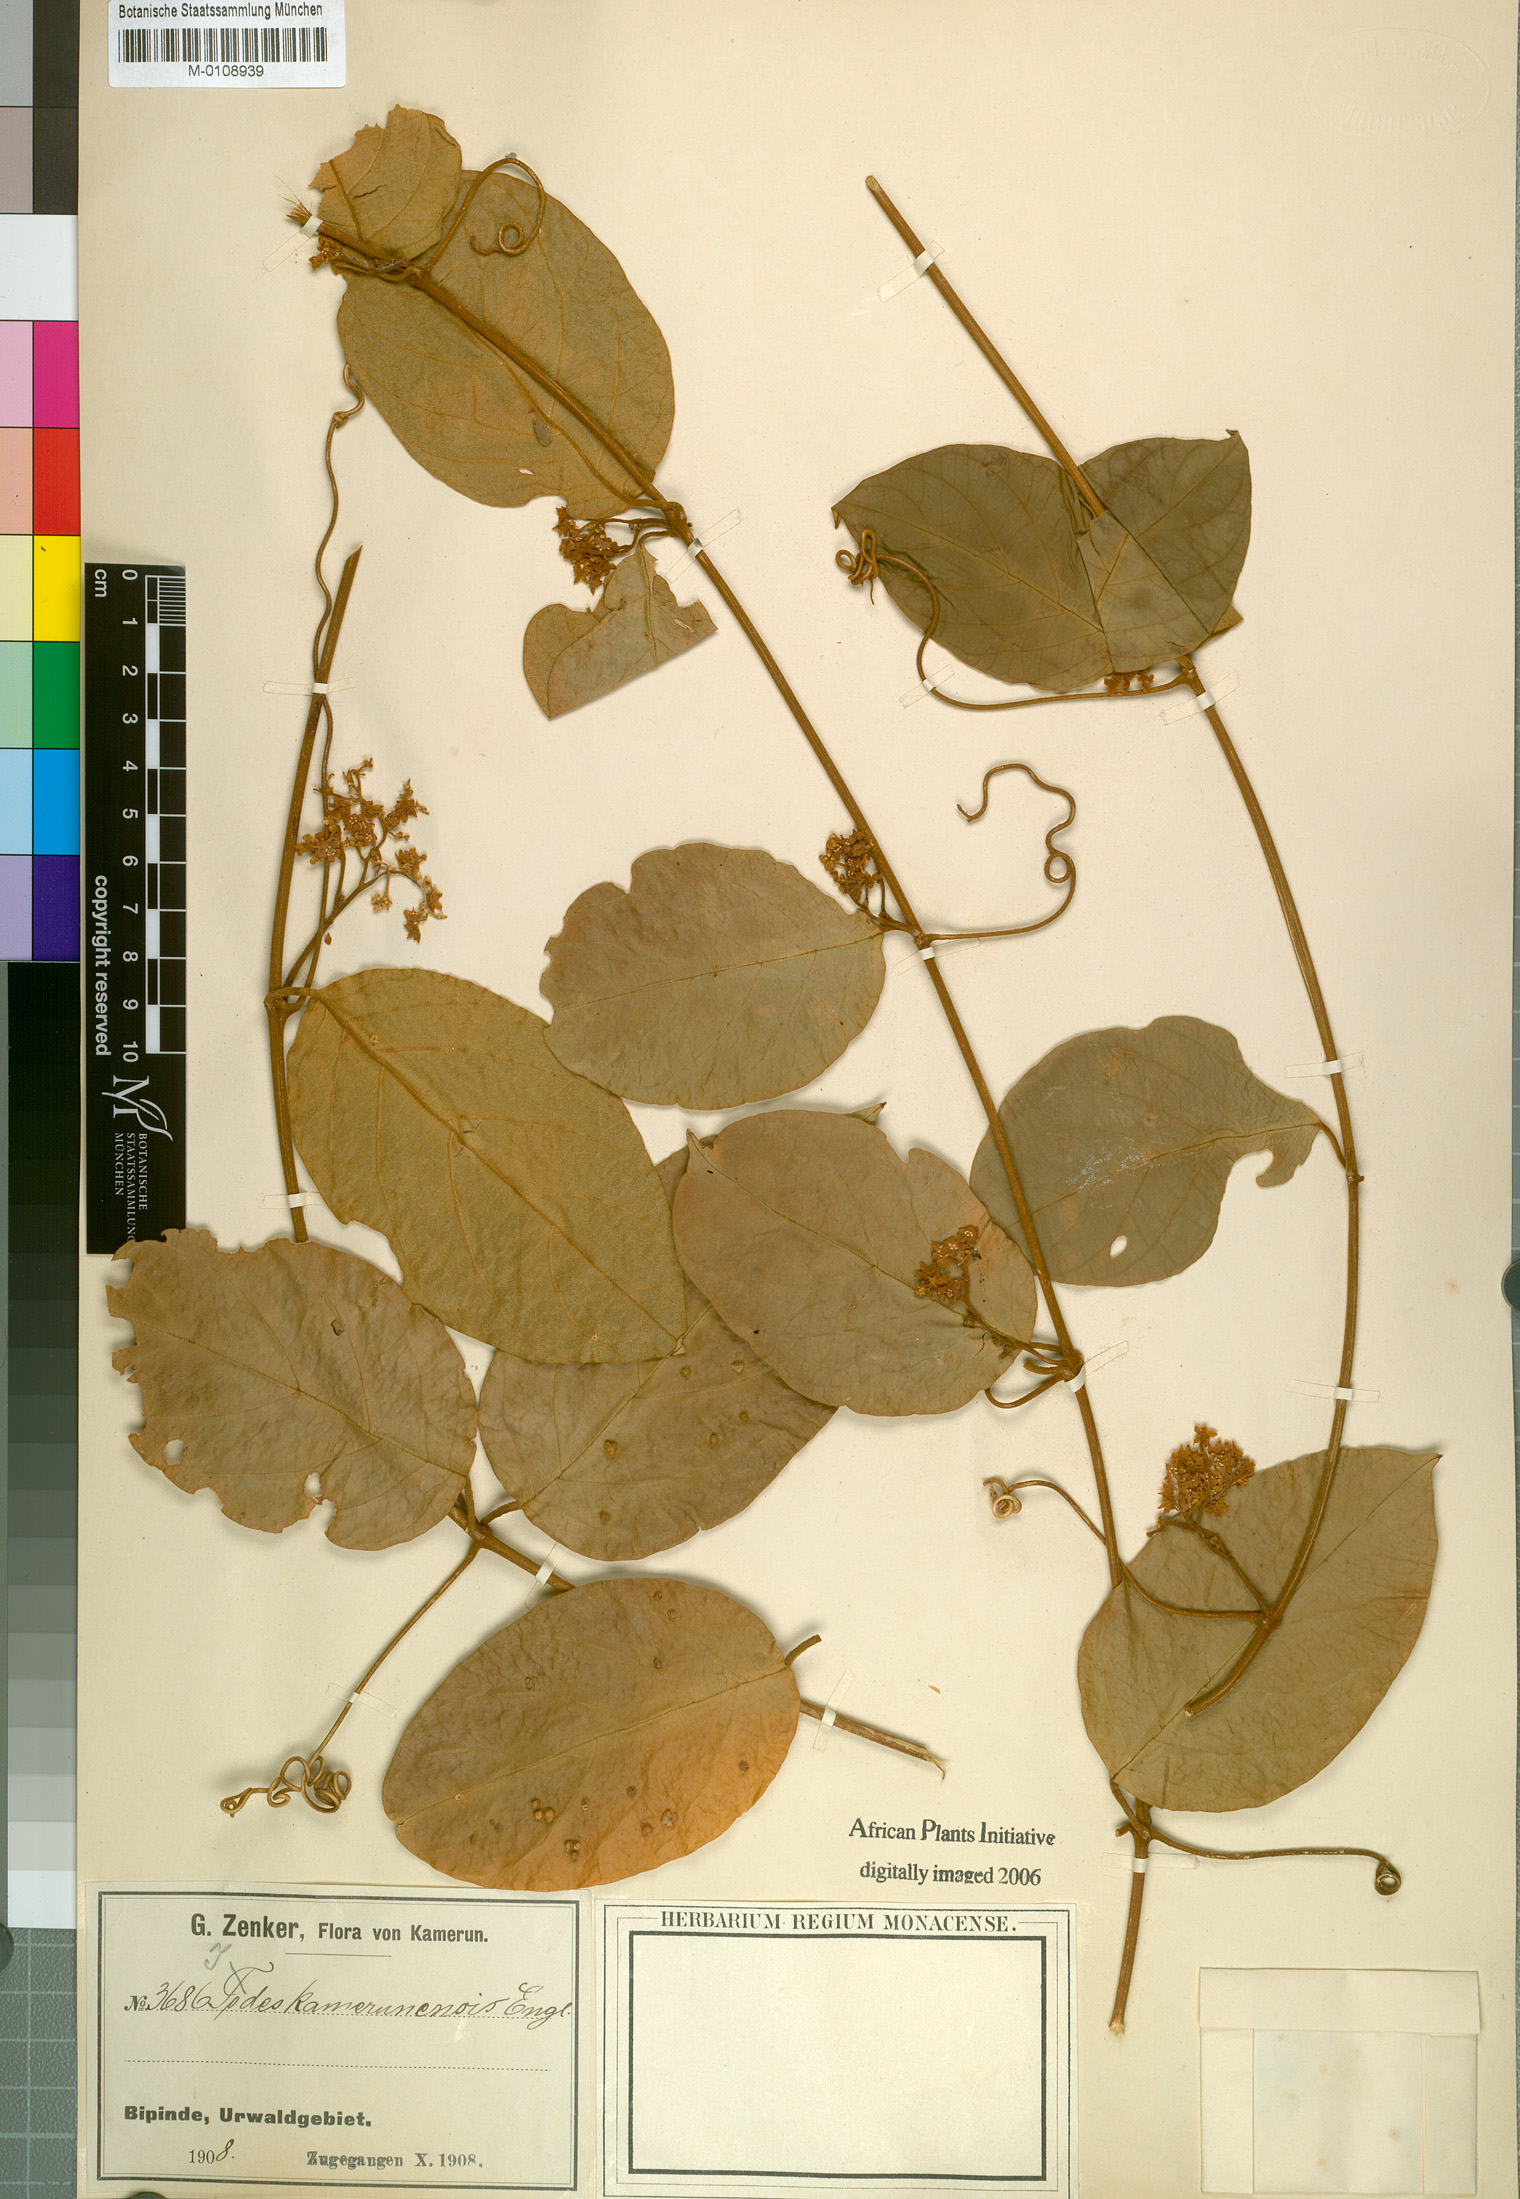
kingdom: Plantae
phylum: Tracheophyta
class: Magnoliopsida
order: Icacinales
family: Icacinaceae
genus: Iodes
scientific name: Iodes kamerunensis
